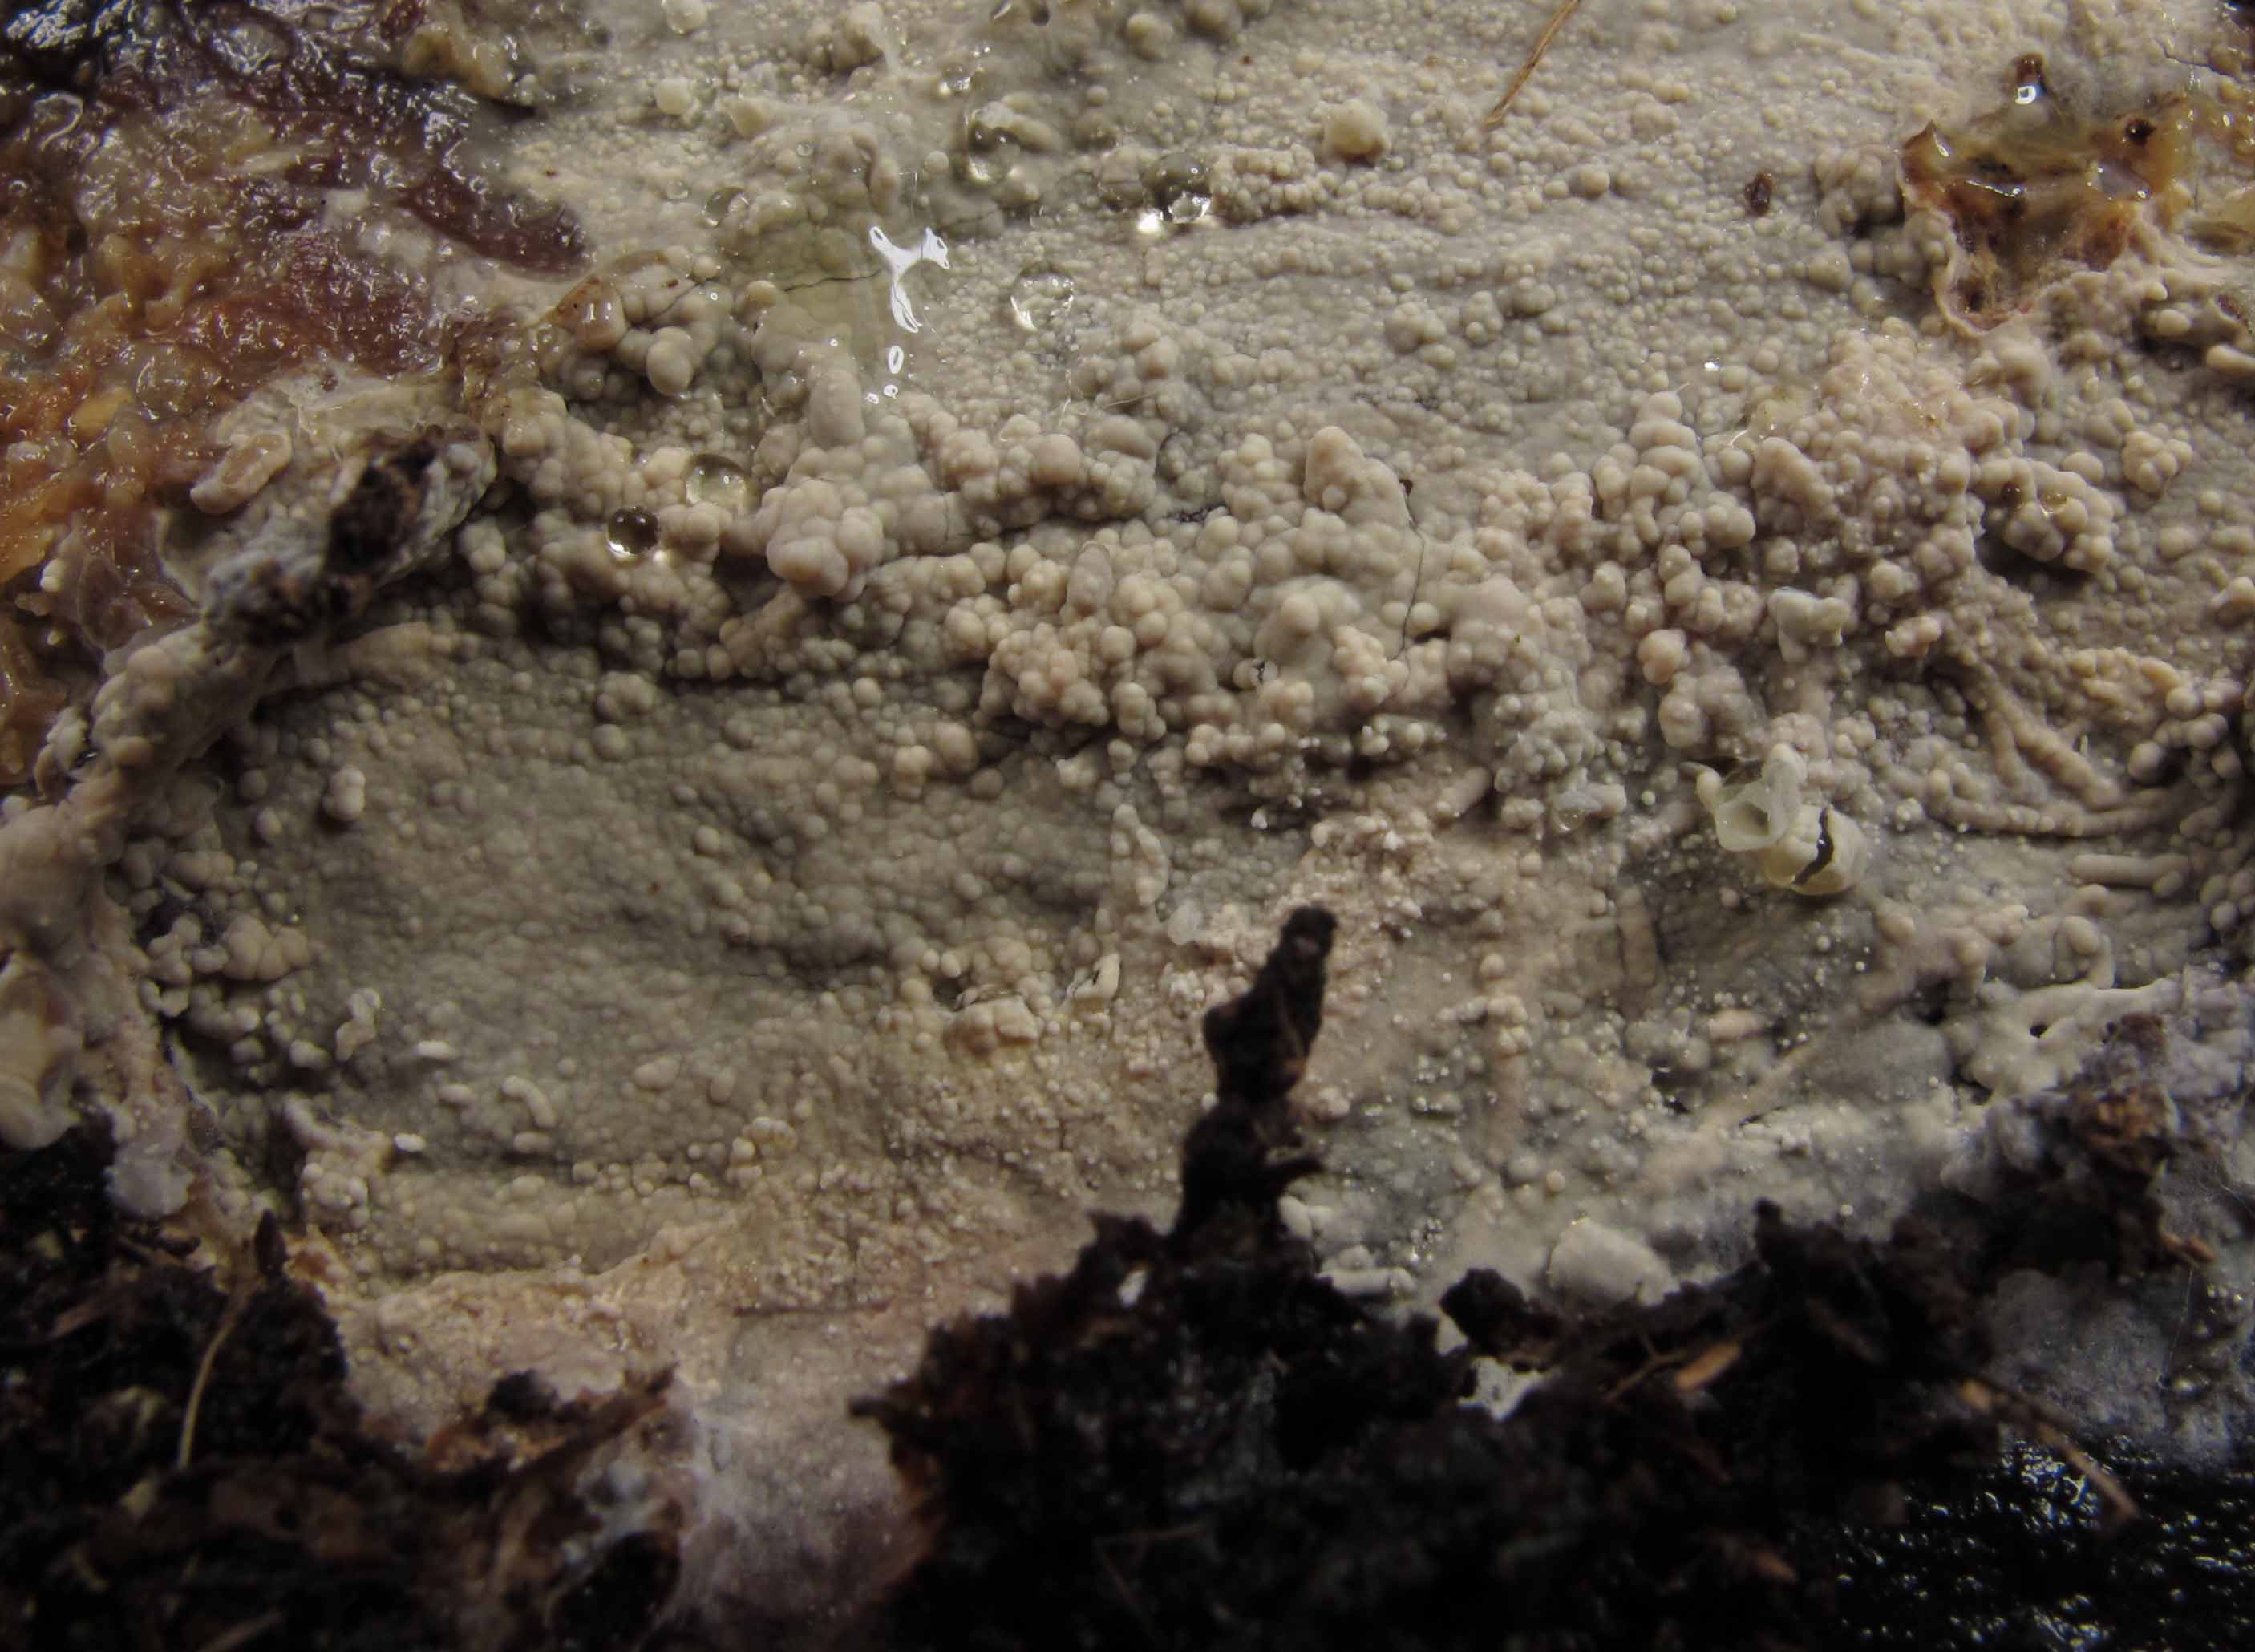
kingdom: Fungi
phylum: Basidiomycota
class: Agaricomycetes
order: Russulales
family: Stereaceae
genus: Gloeocystidiellum
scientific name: Gloeocystidiellum porosum
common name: mælkehvid olieskind
